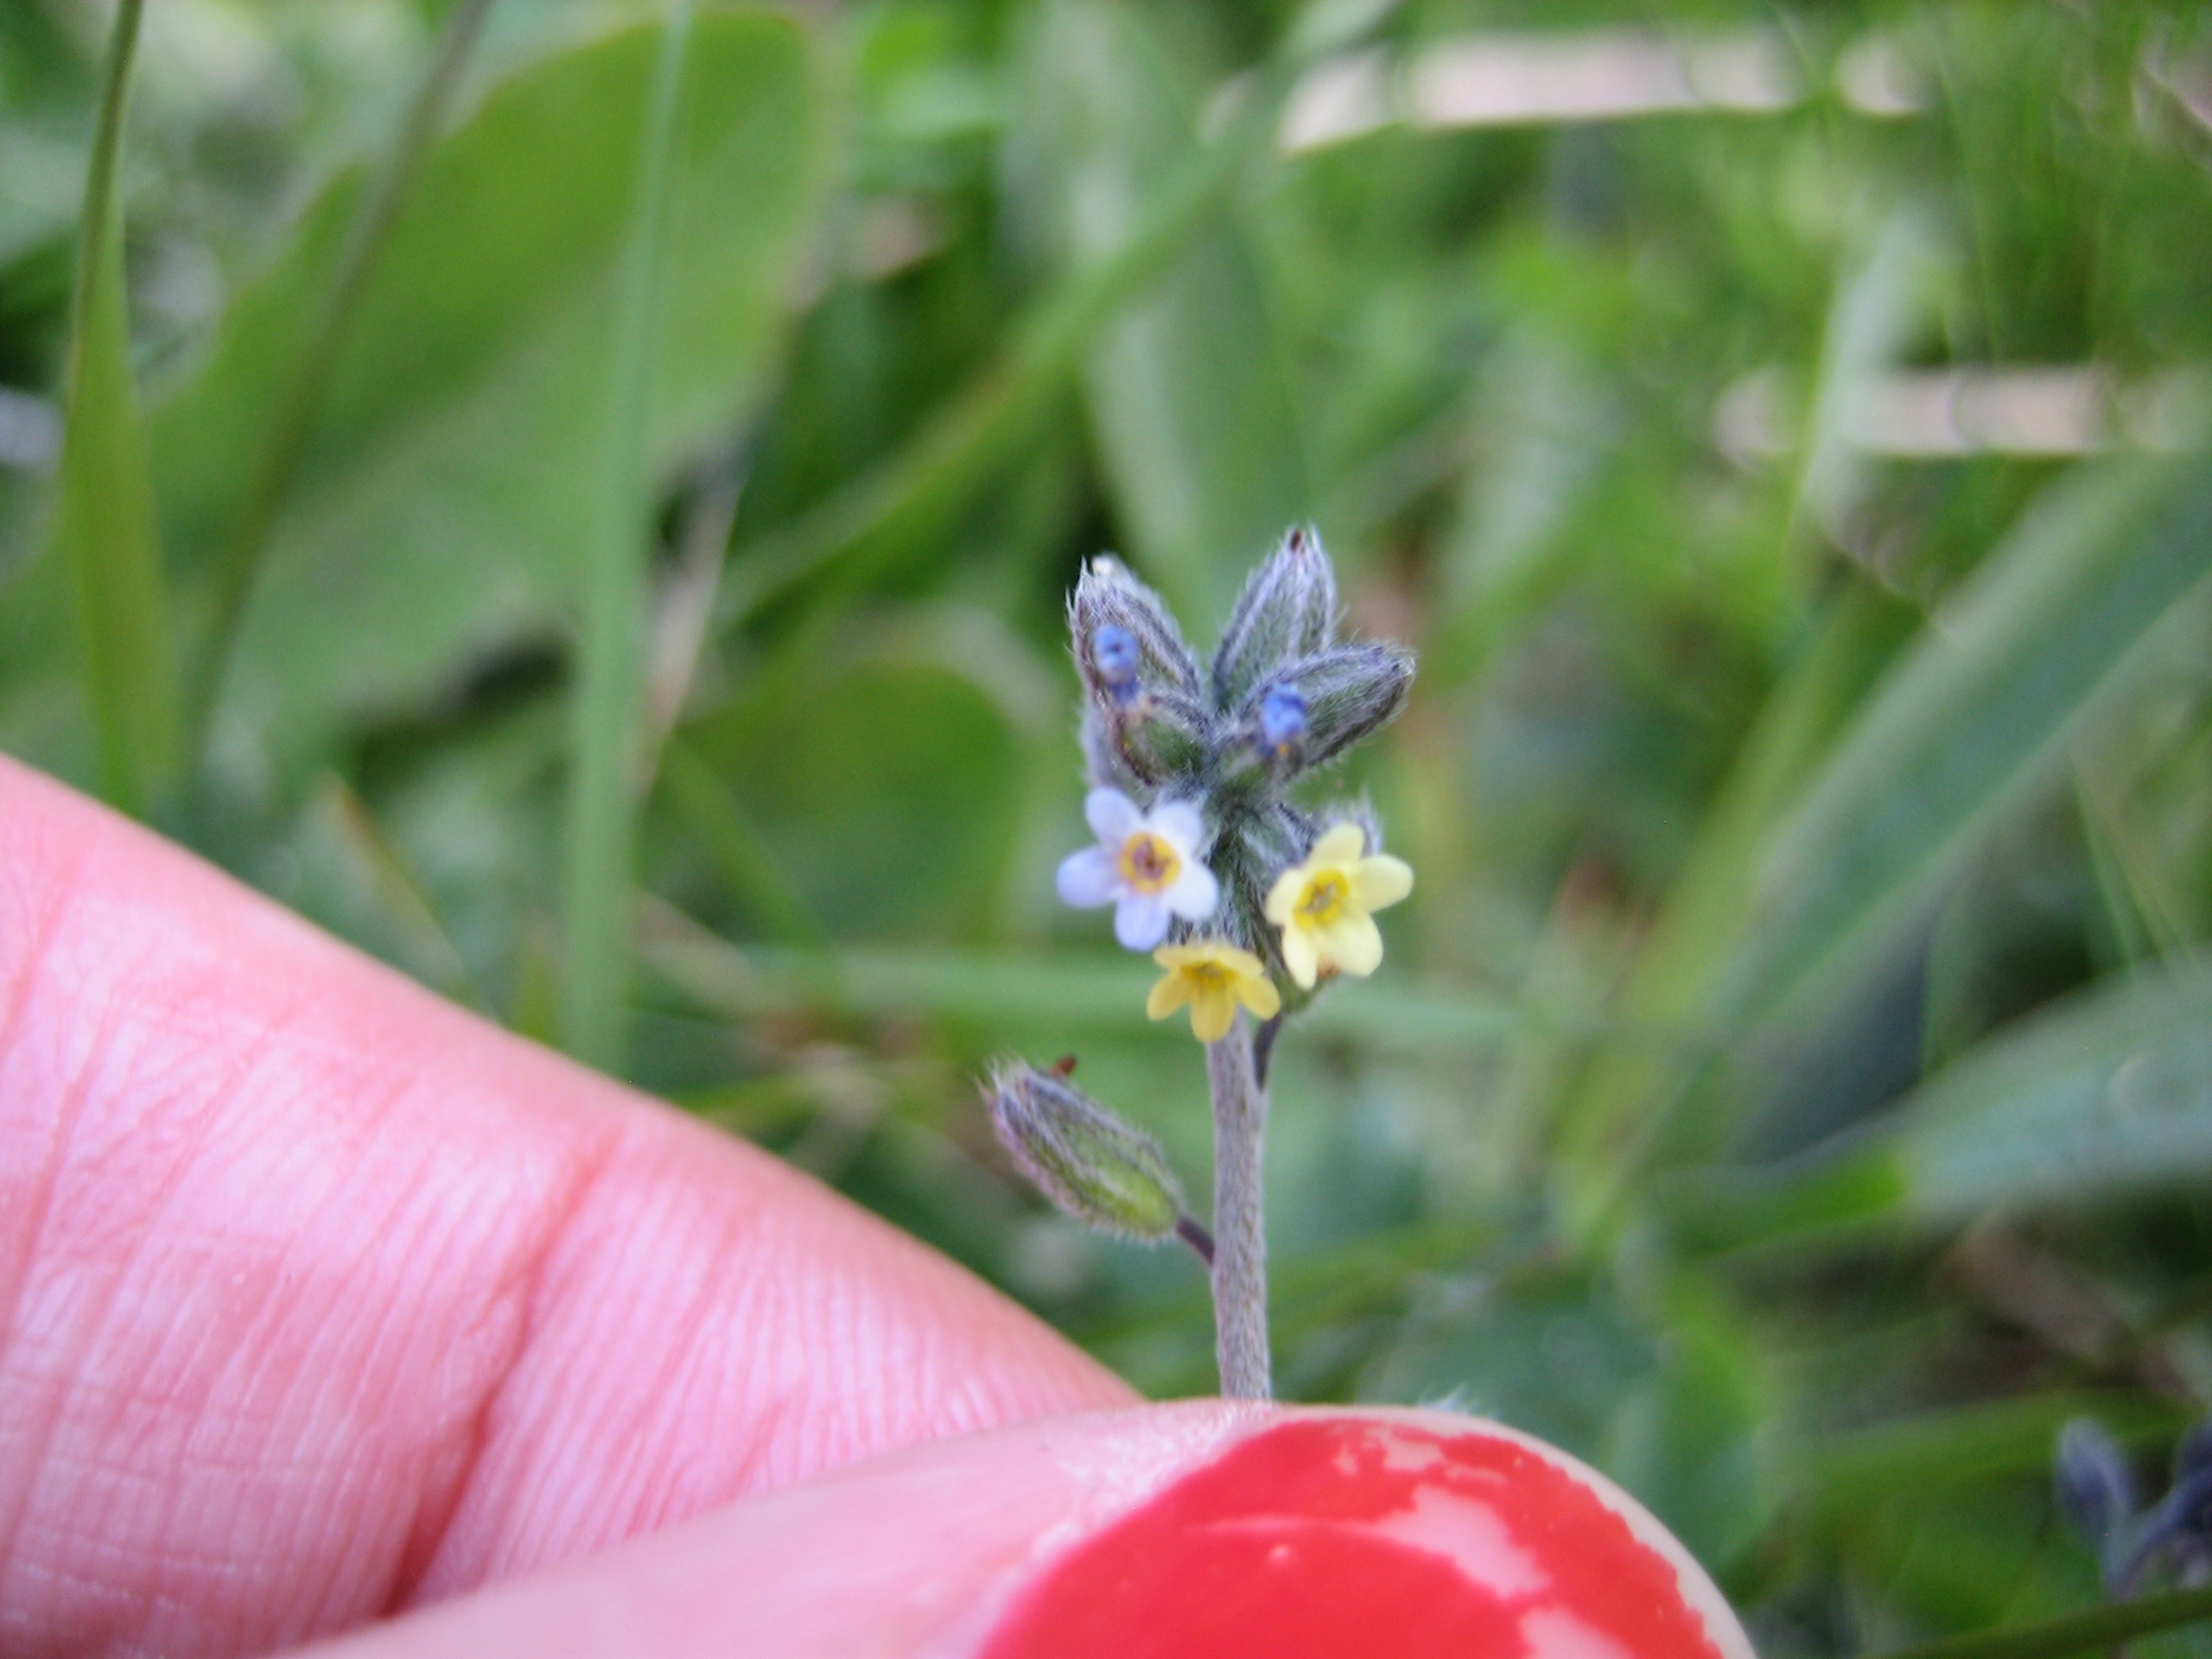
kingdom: Plantae
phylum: Tracheophyta
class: Magnoliopsida
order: Boraginales
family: Boraginaceae
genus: Myosotis
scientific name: Myosotis discolor
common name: Forskelligfarvet forglemmigej
